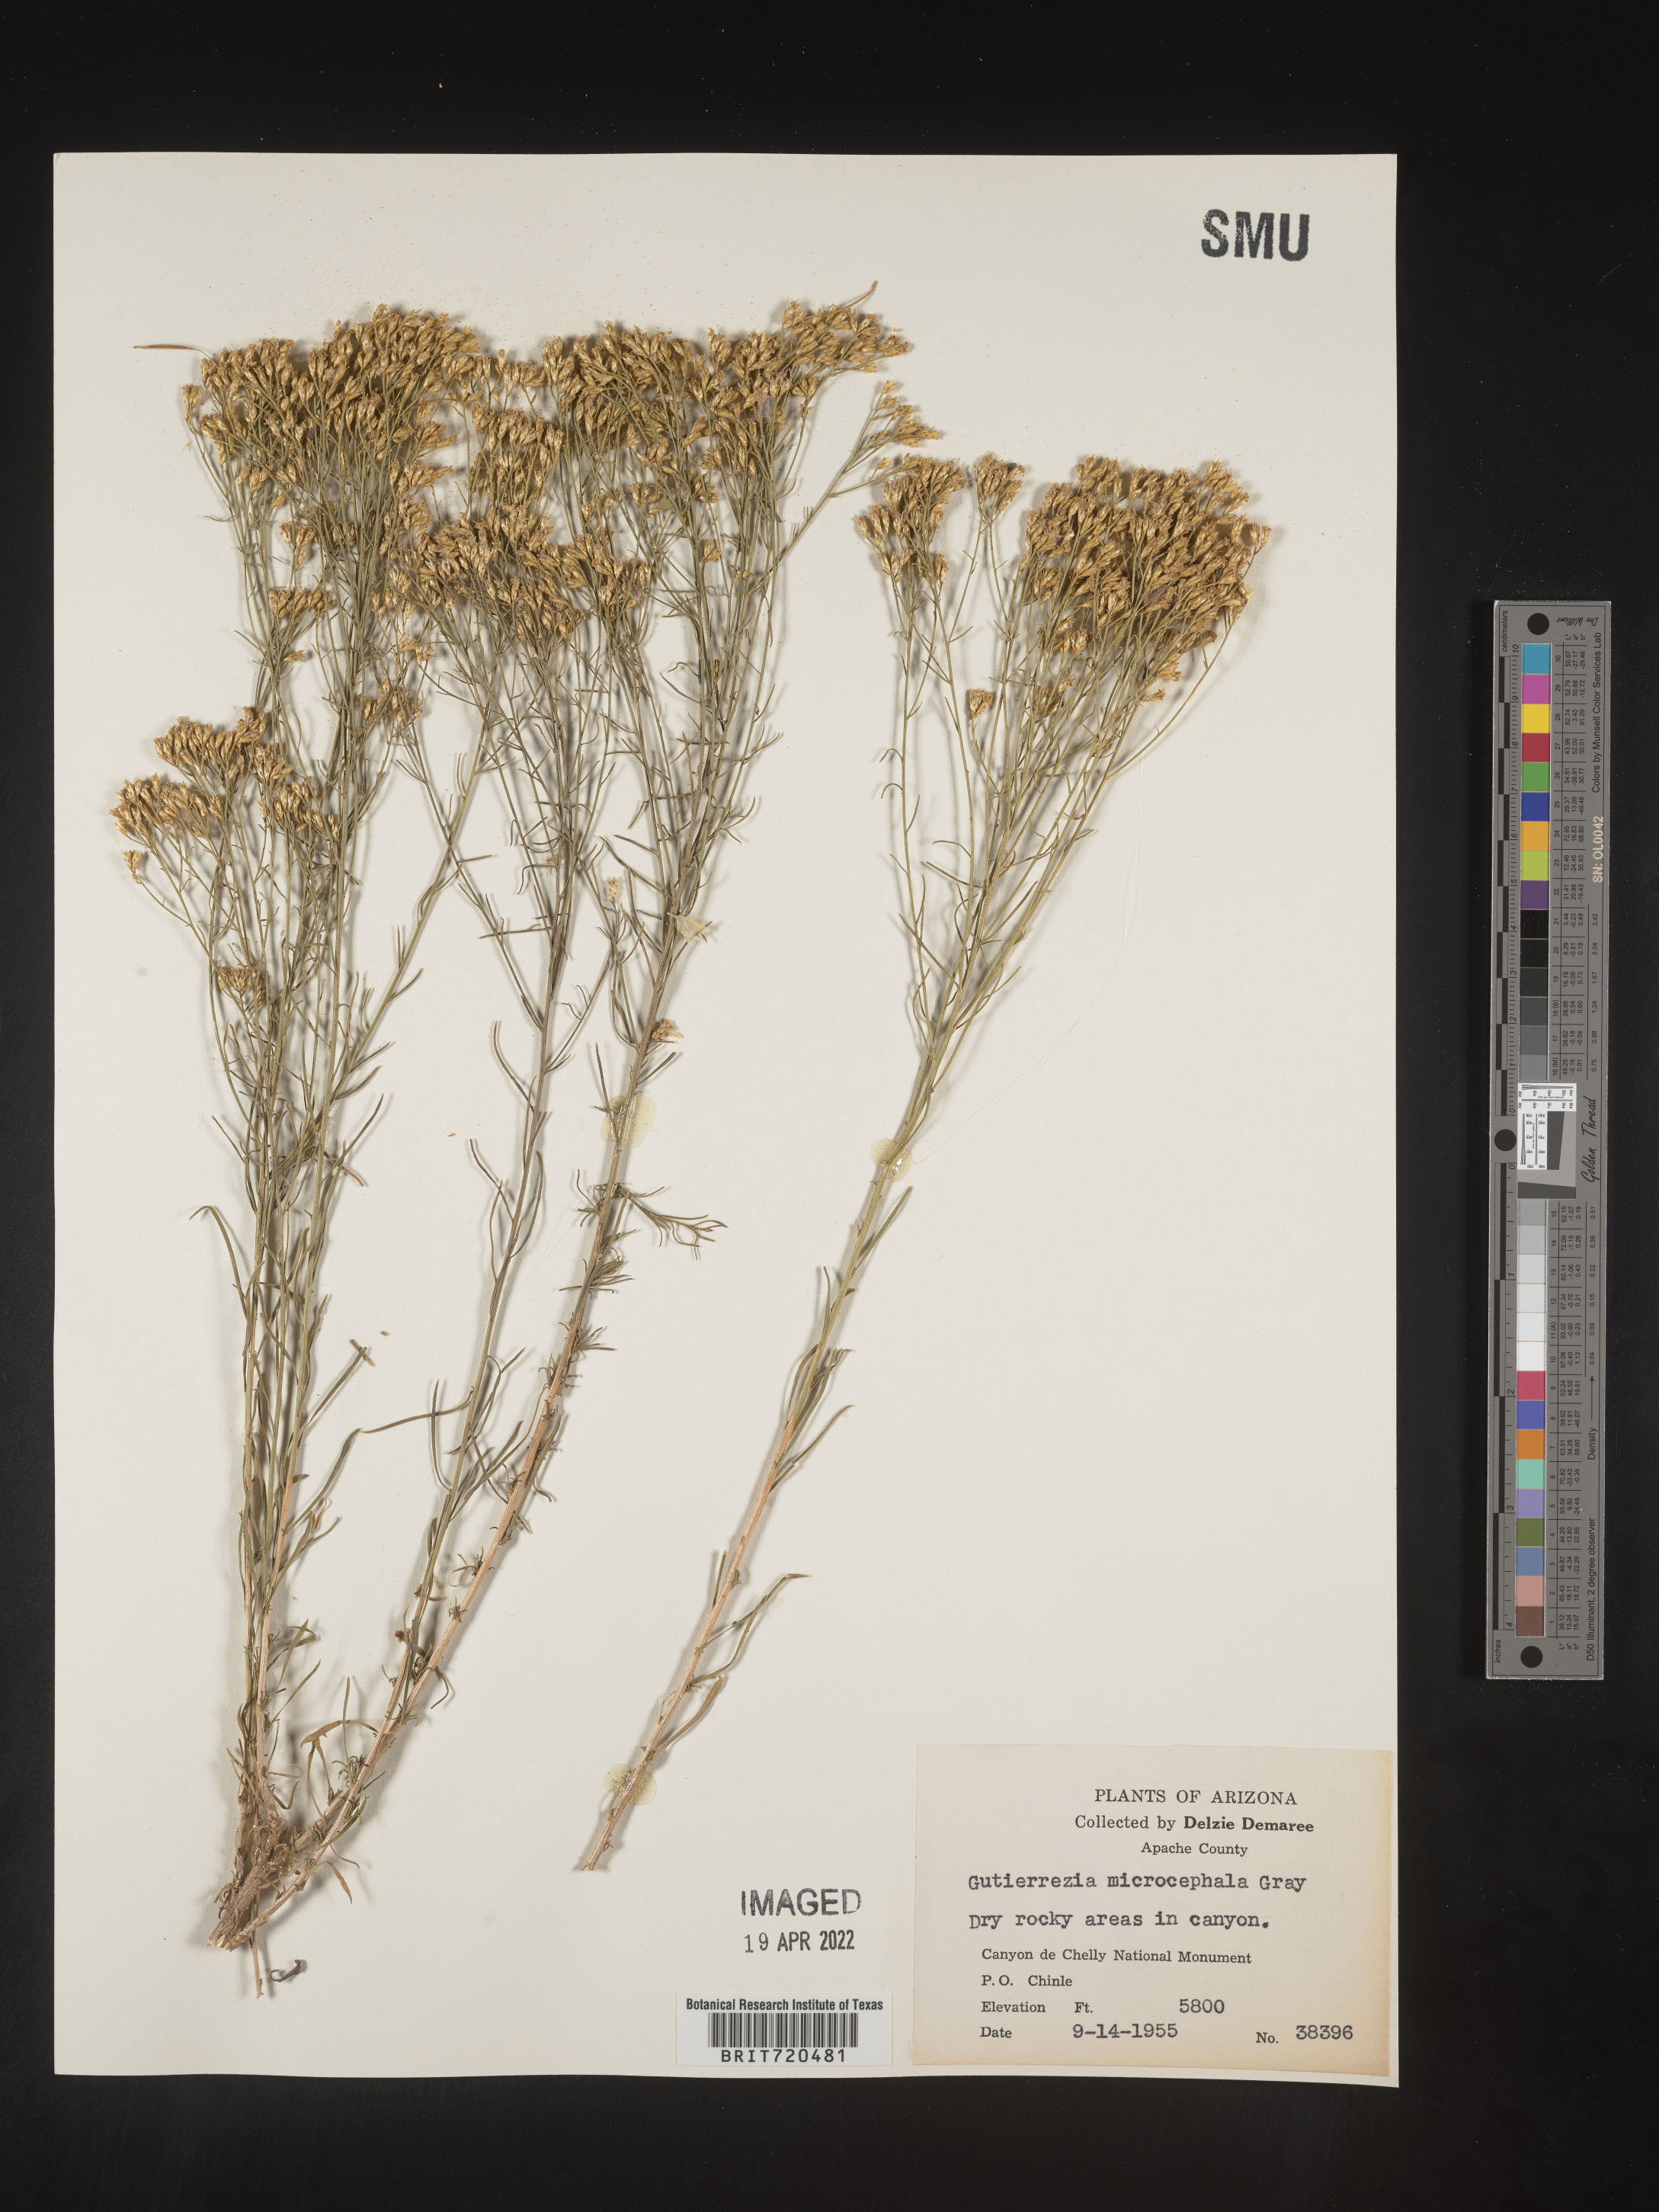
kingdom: Plantae
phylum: Tracheophyta
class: Magnoliopsida
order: Asterales
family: Asteraceae
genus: Gutierrezia
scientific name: Gutierrezia microcephala
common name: Thread snakeweed
